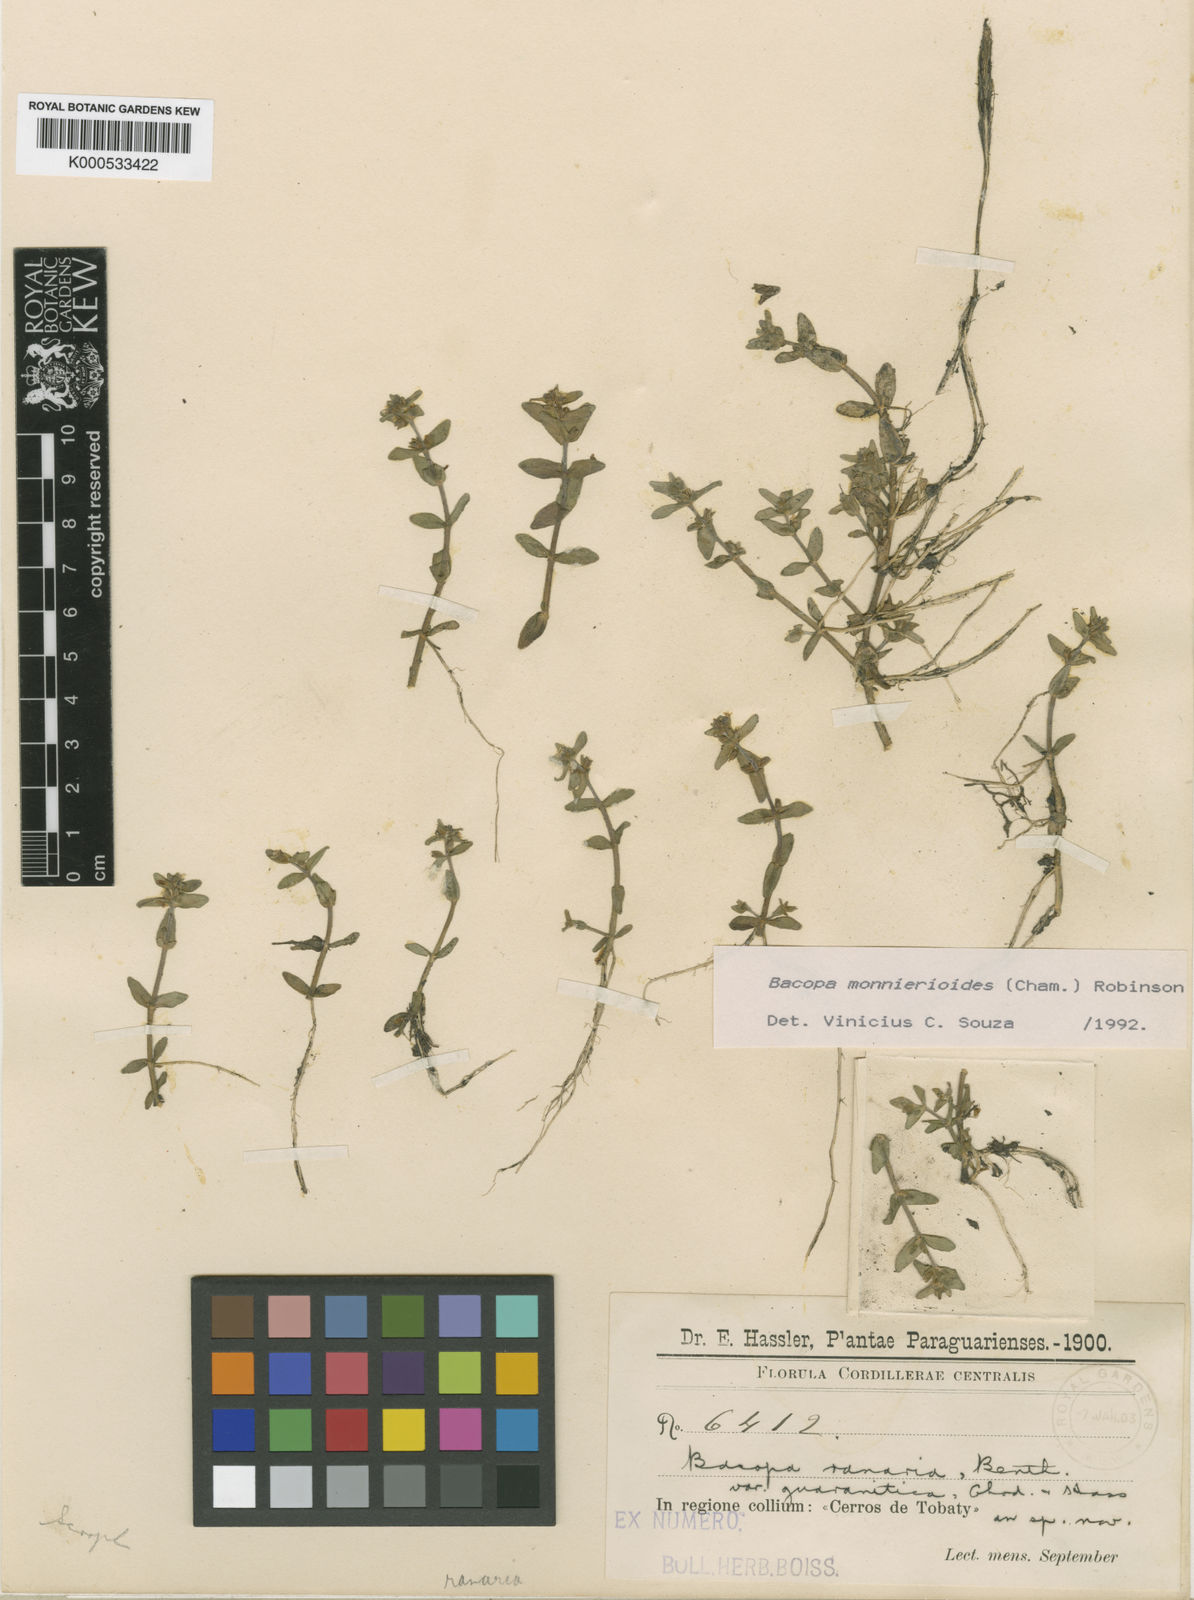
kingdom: Plantae
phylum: Tracheophyta
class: Magnoliopsida
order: Lamiales
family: Plantaginaceae
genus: Bacopa
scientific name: Bacopa monnierioides
